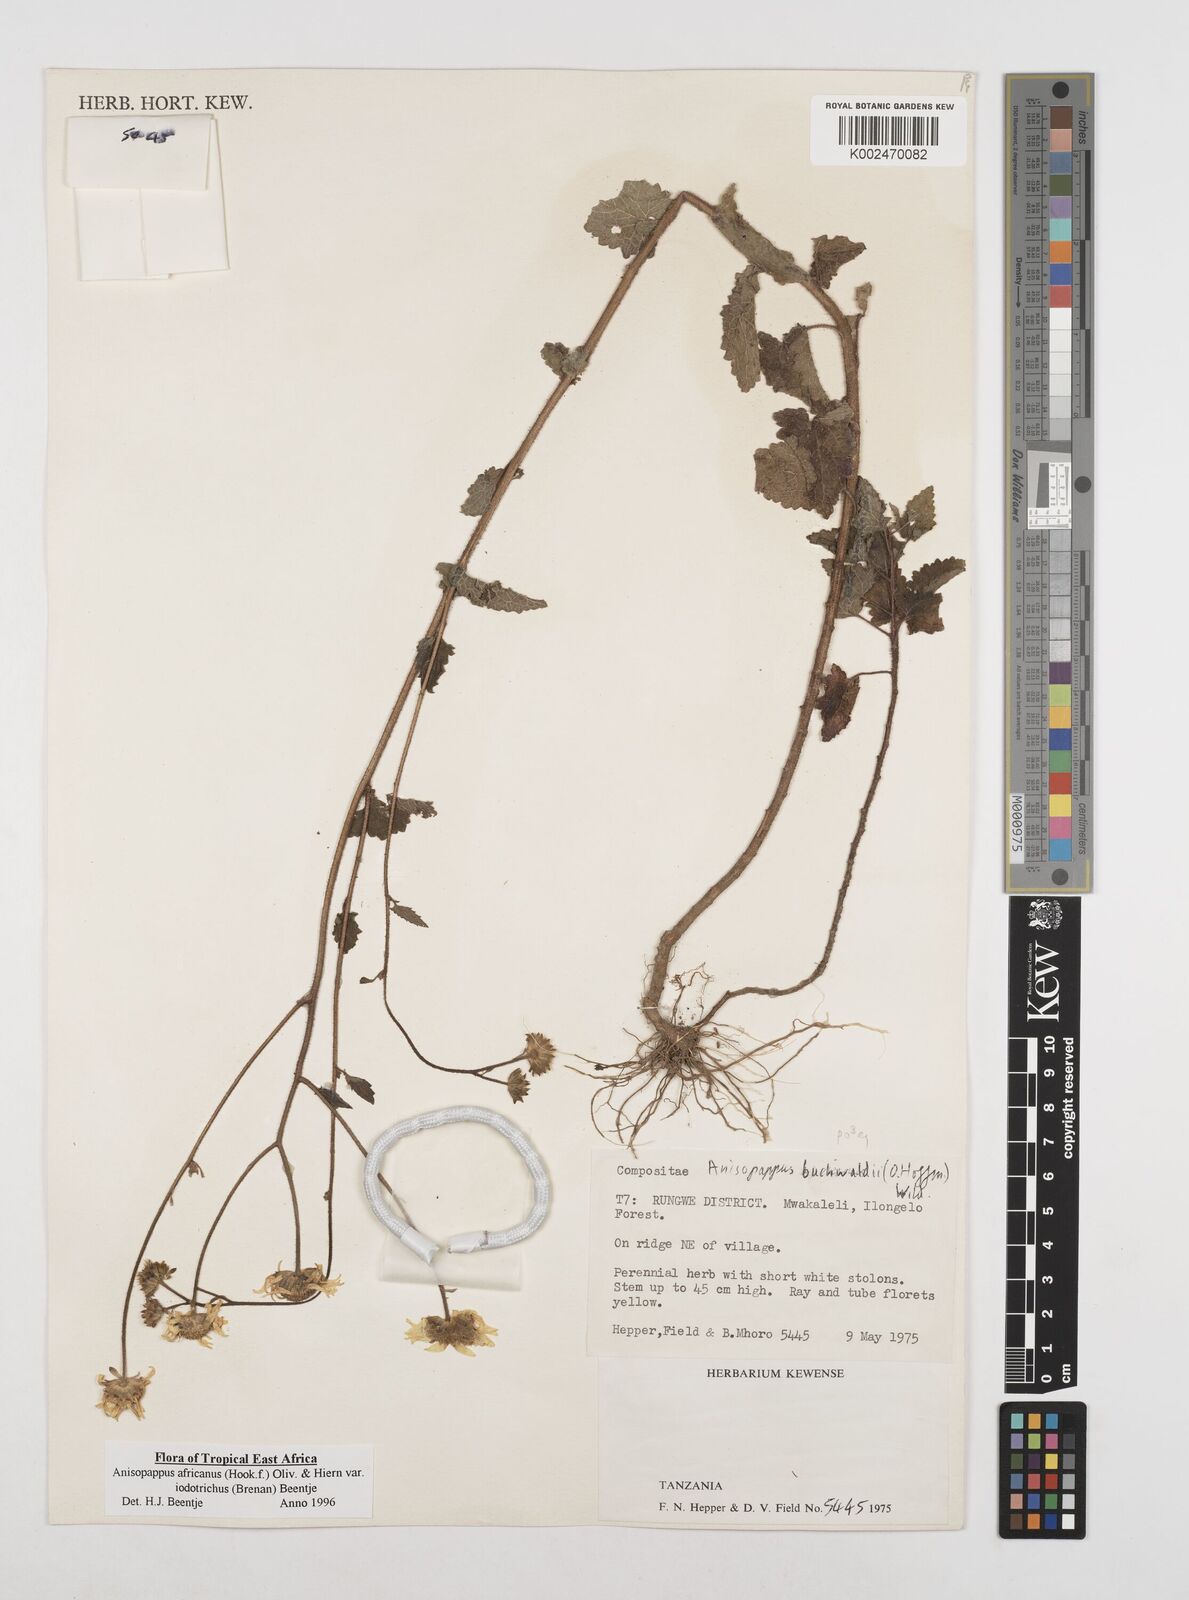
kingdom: Plantae
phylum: Tracheophyta
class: Magnoliopsida
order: Asterales
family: Asteraceae
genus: Anisopappus
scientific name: Anisopappus buchwaldii
